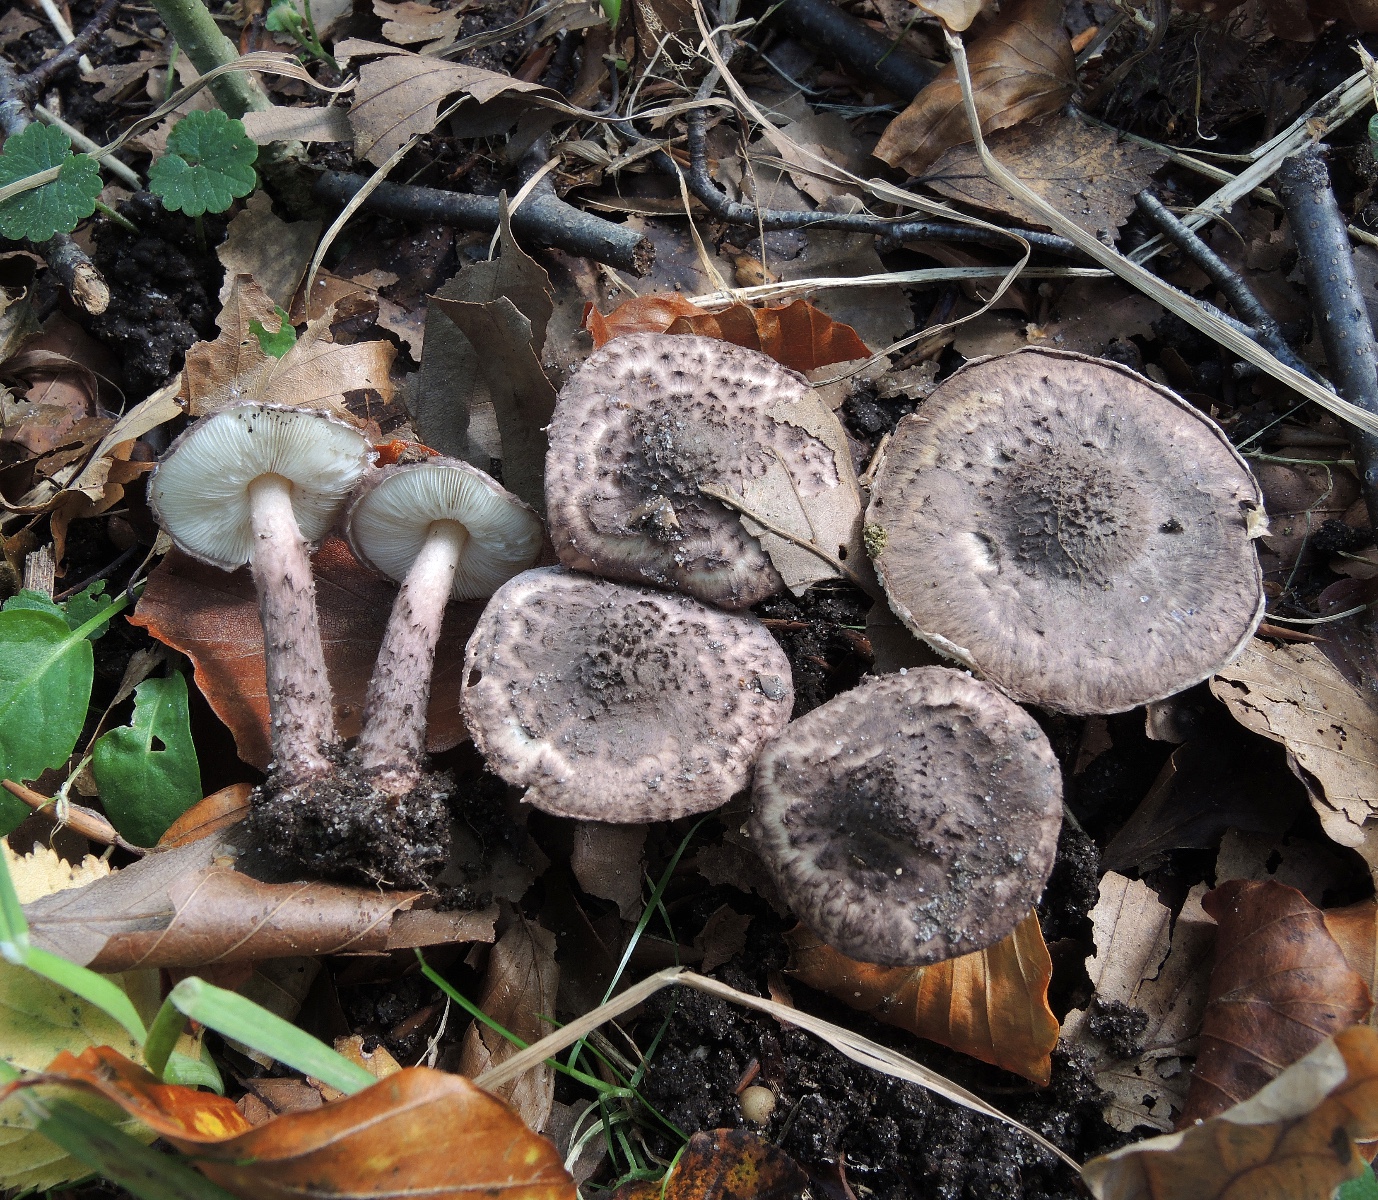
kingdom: Fungi
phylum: Basidiomycota
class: Agaricomycetes
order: Agaricales
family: Agaricaceae
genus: Lepiota
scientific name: Lepiota fuscovinacea
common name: vinrød parasolhat
